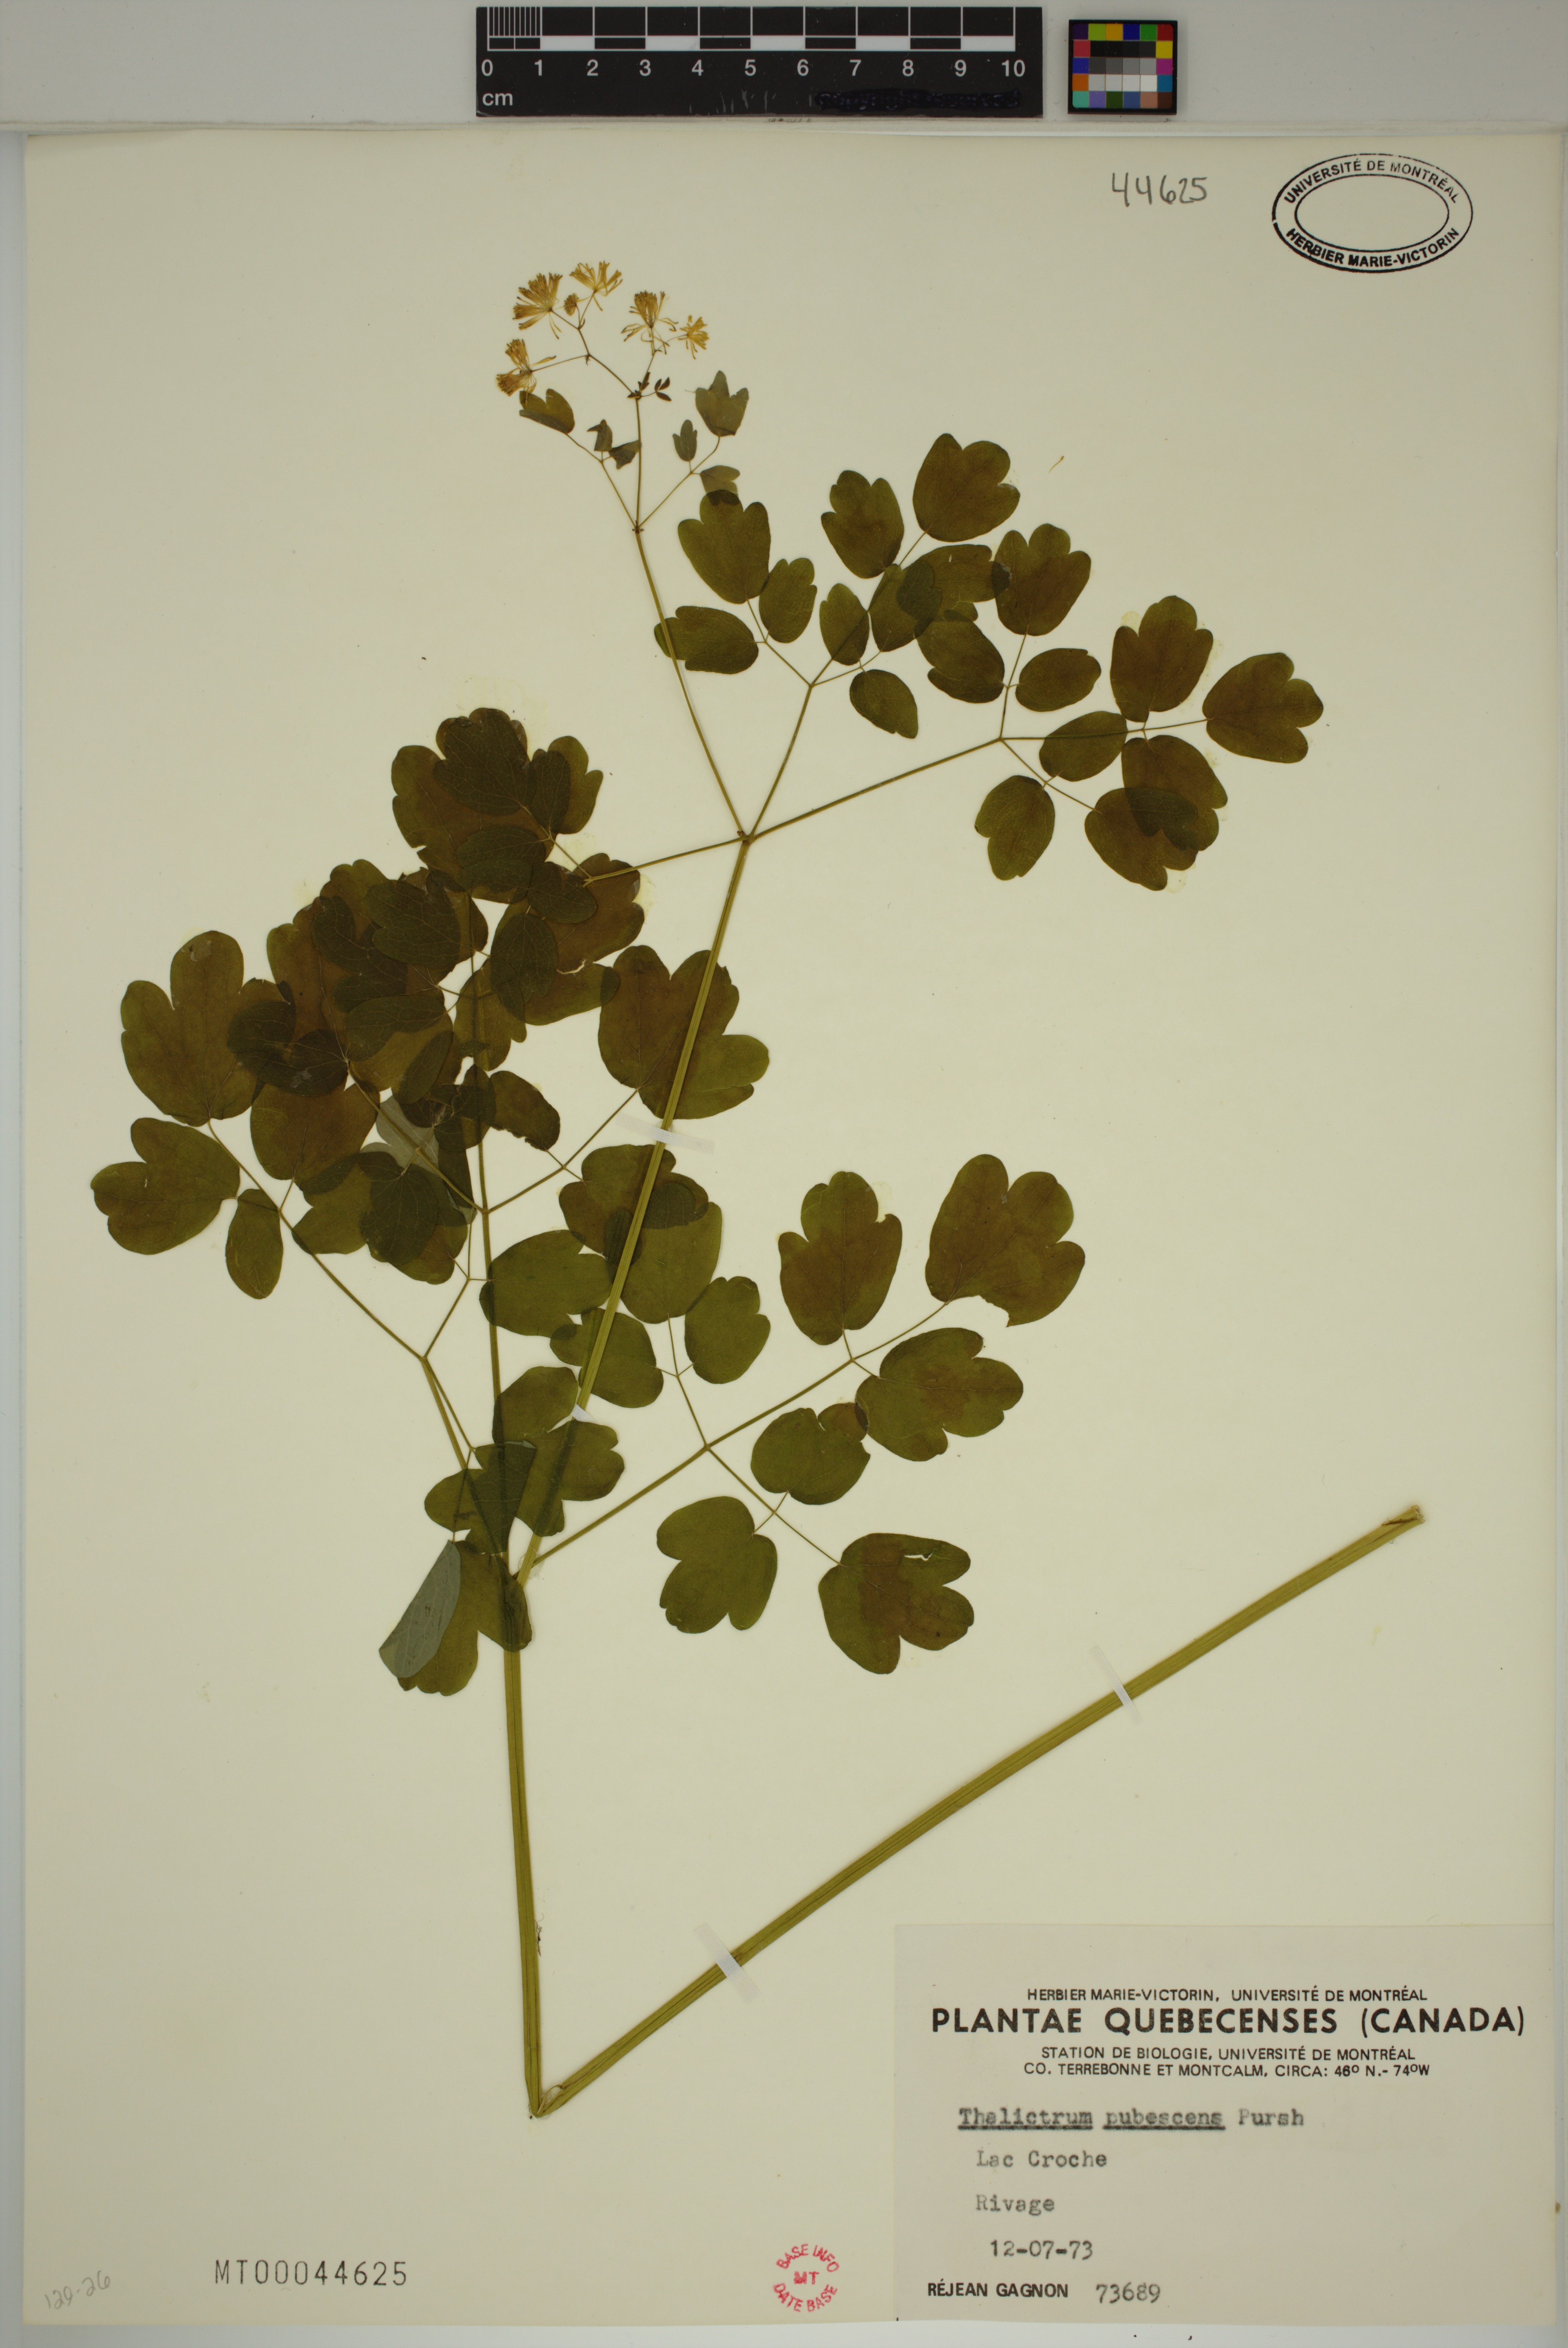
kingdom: Plantae
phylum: Tracheophyta
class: Magnoliopsida
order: Ranunculales
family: Ranunculaceae
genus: Thalictrum
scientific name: Thalictrum pubescens
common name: King-of-the-meadow
